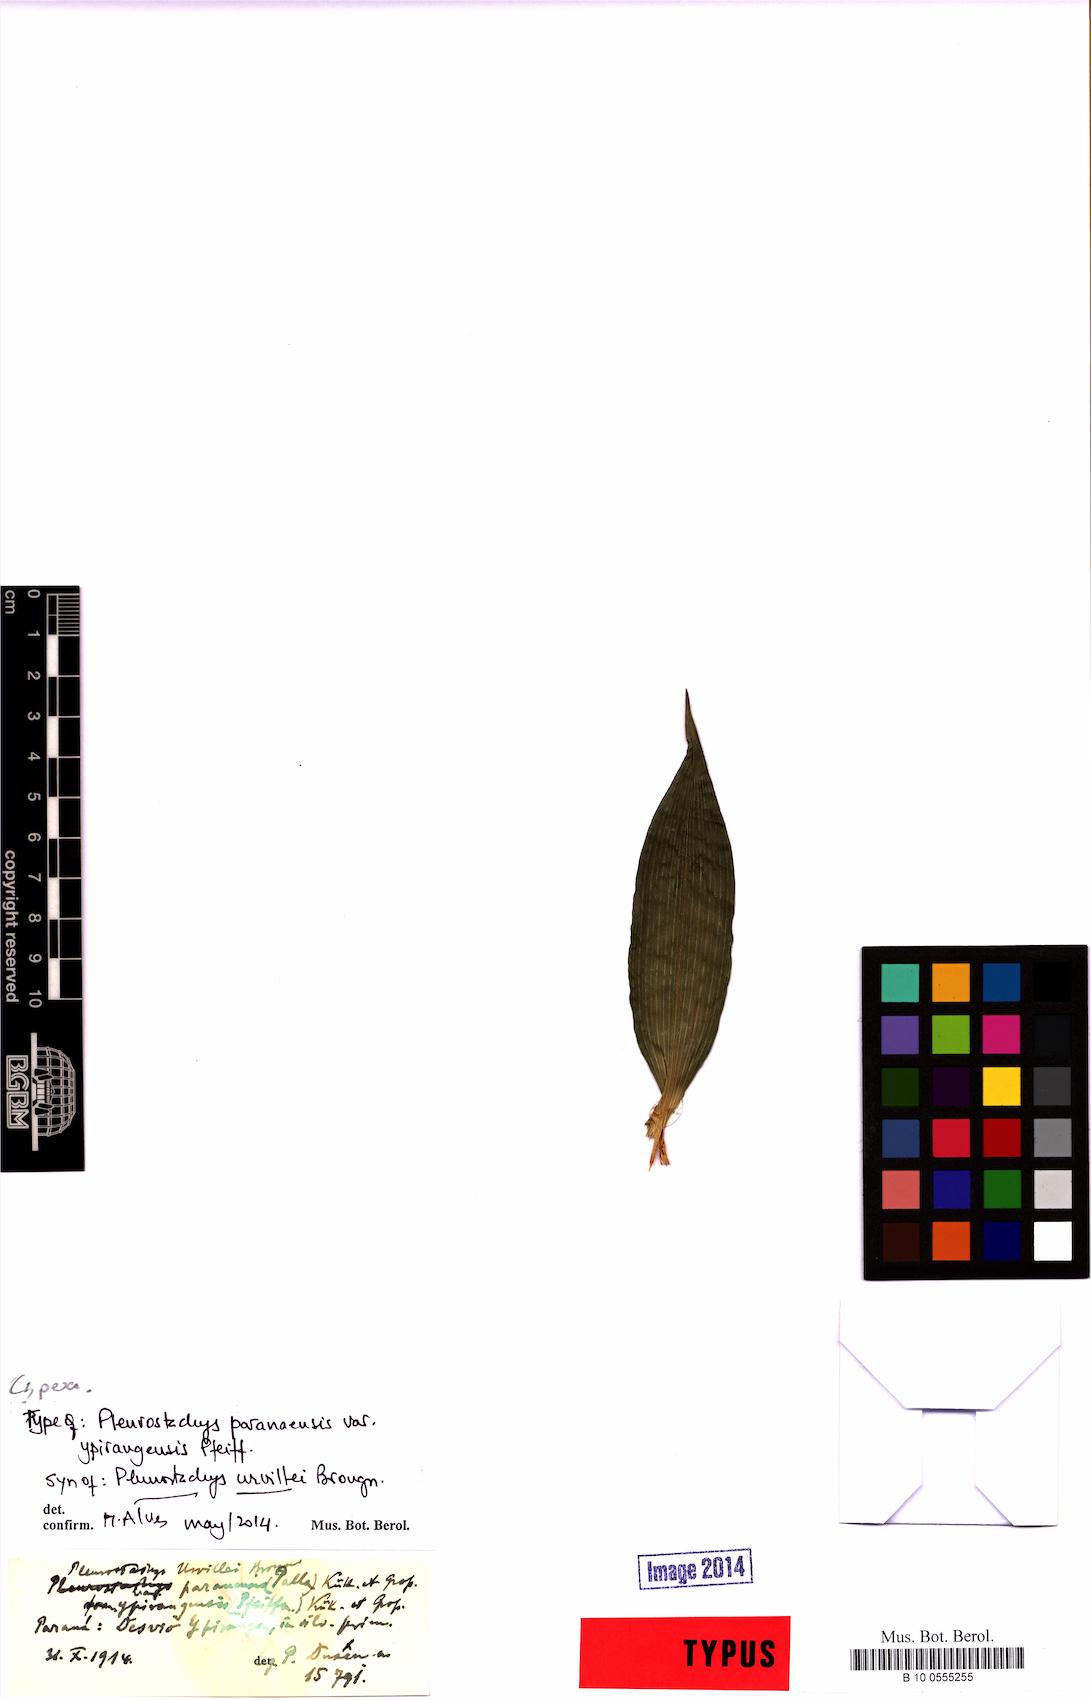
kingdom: Plantae
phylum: Tracheophyta
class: Liliopsida
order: Poales
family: Cyperaceae
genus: Rhynchospora
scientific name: Rhynchospora Pleurostachys ulei
